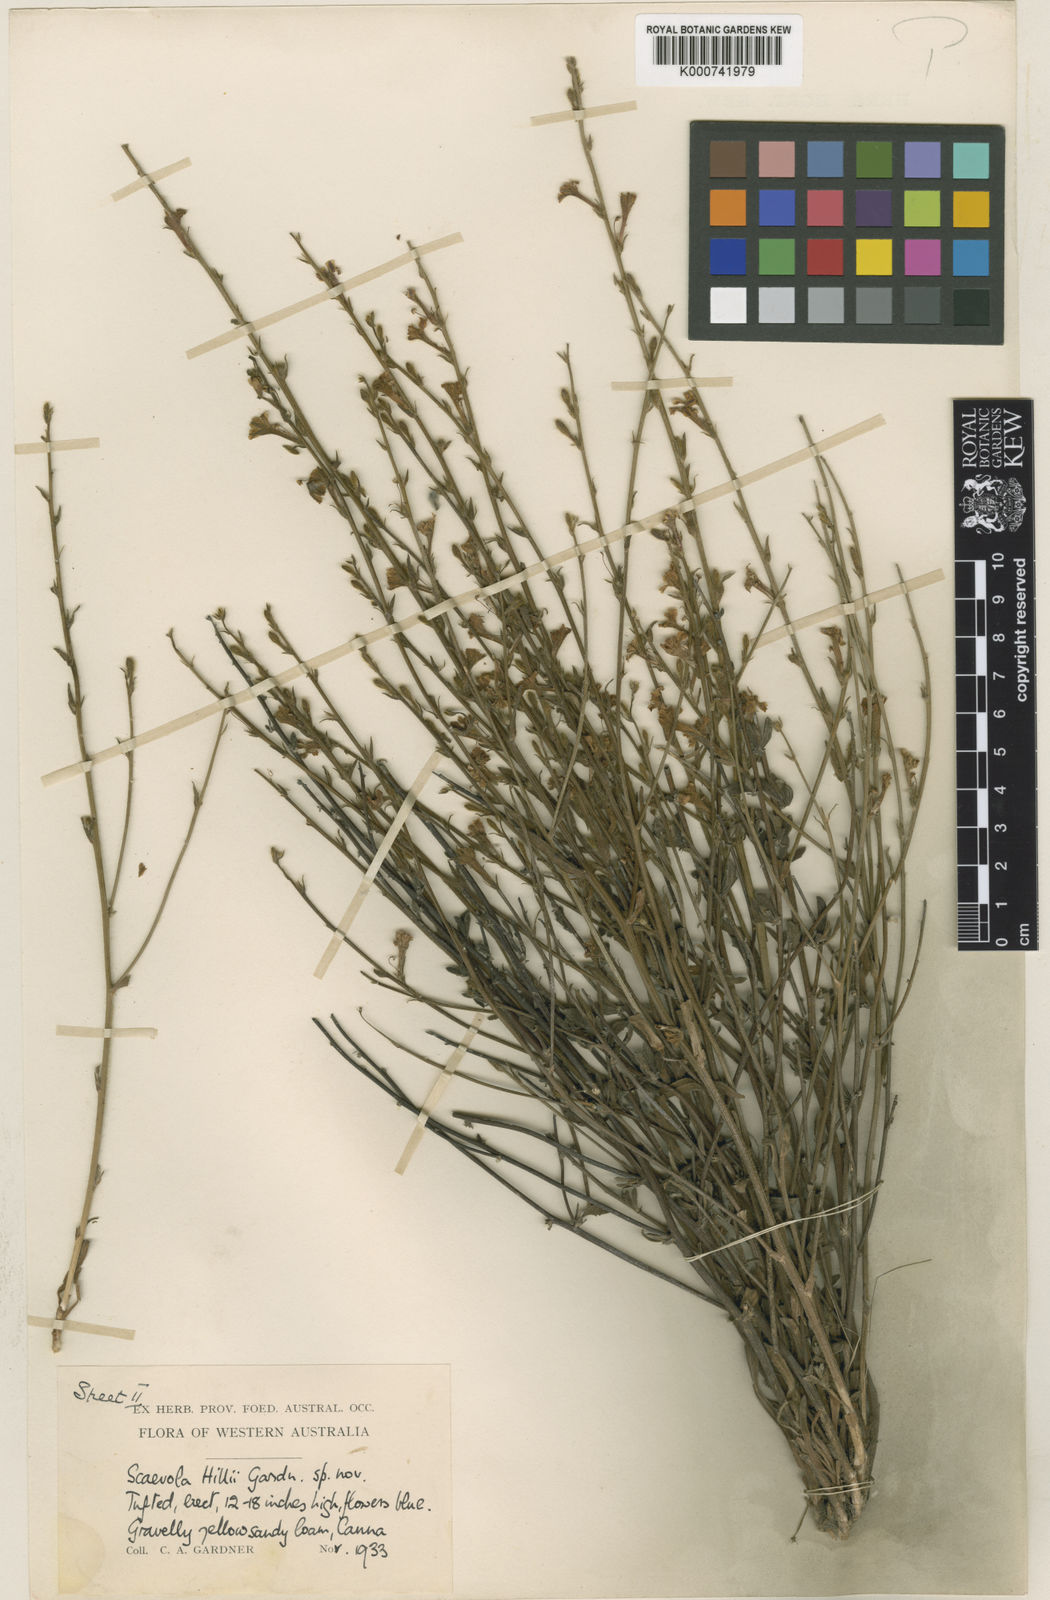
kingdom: Plantae
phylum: Tracheophyta
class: Magnoliopsida
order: Asterales
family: Goodeniaceae
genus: Scaevola
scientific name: Scaevola
